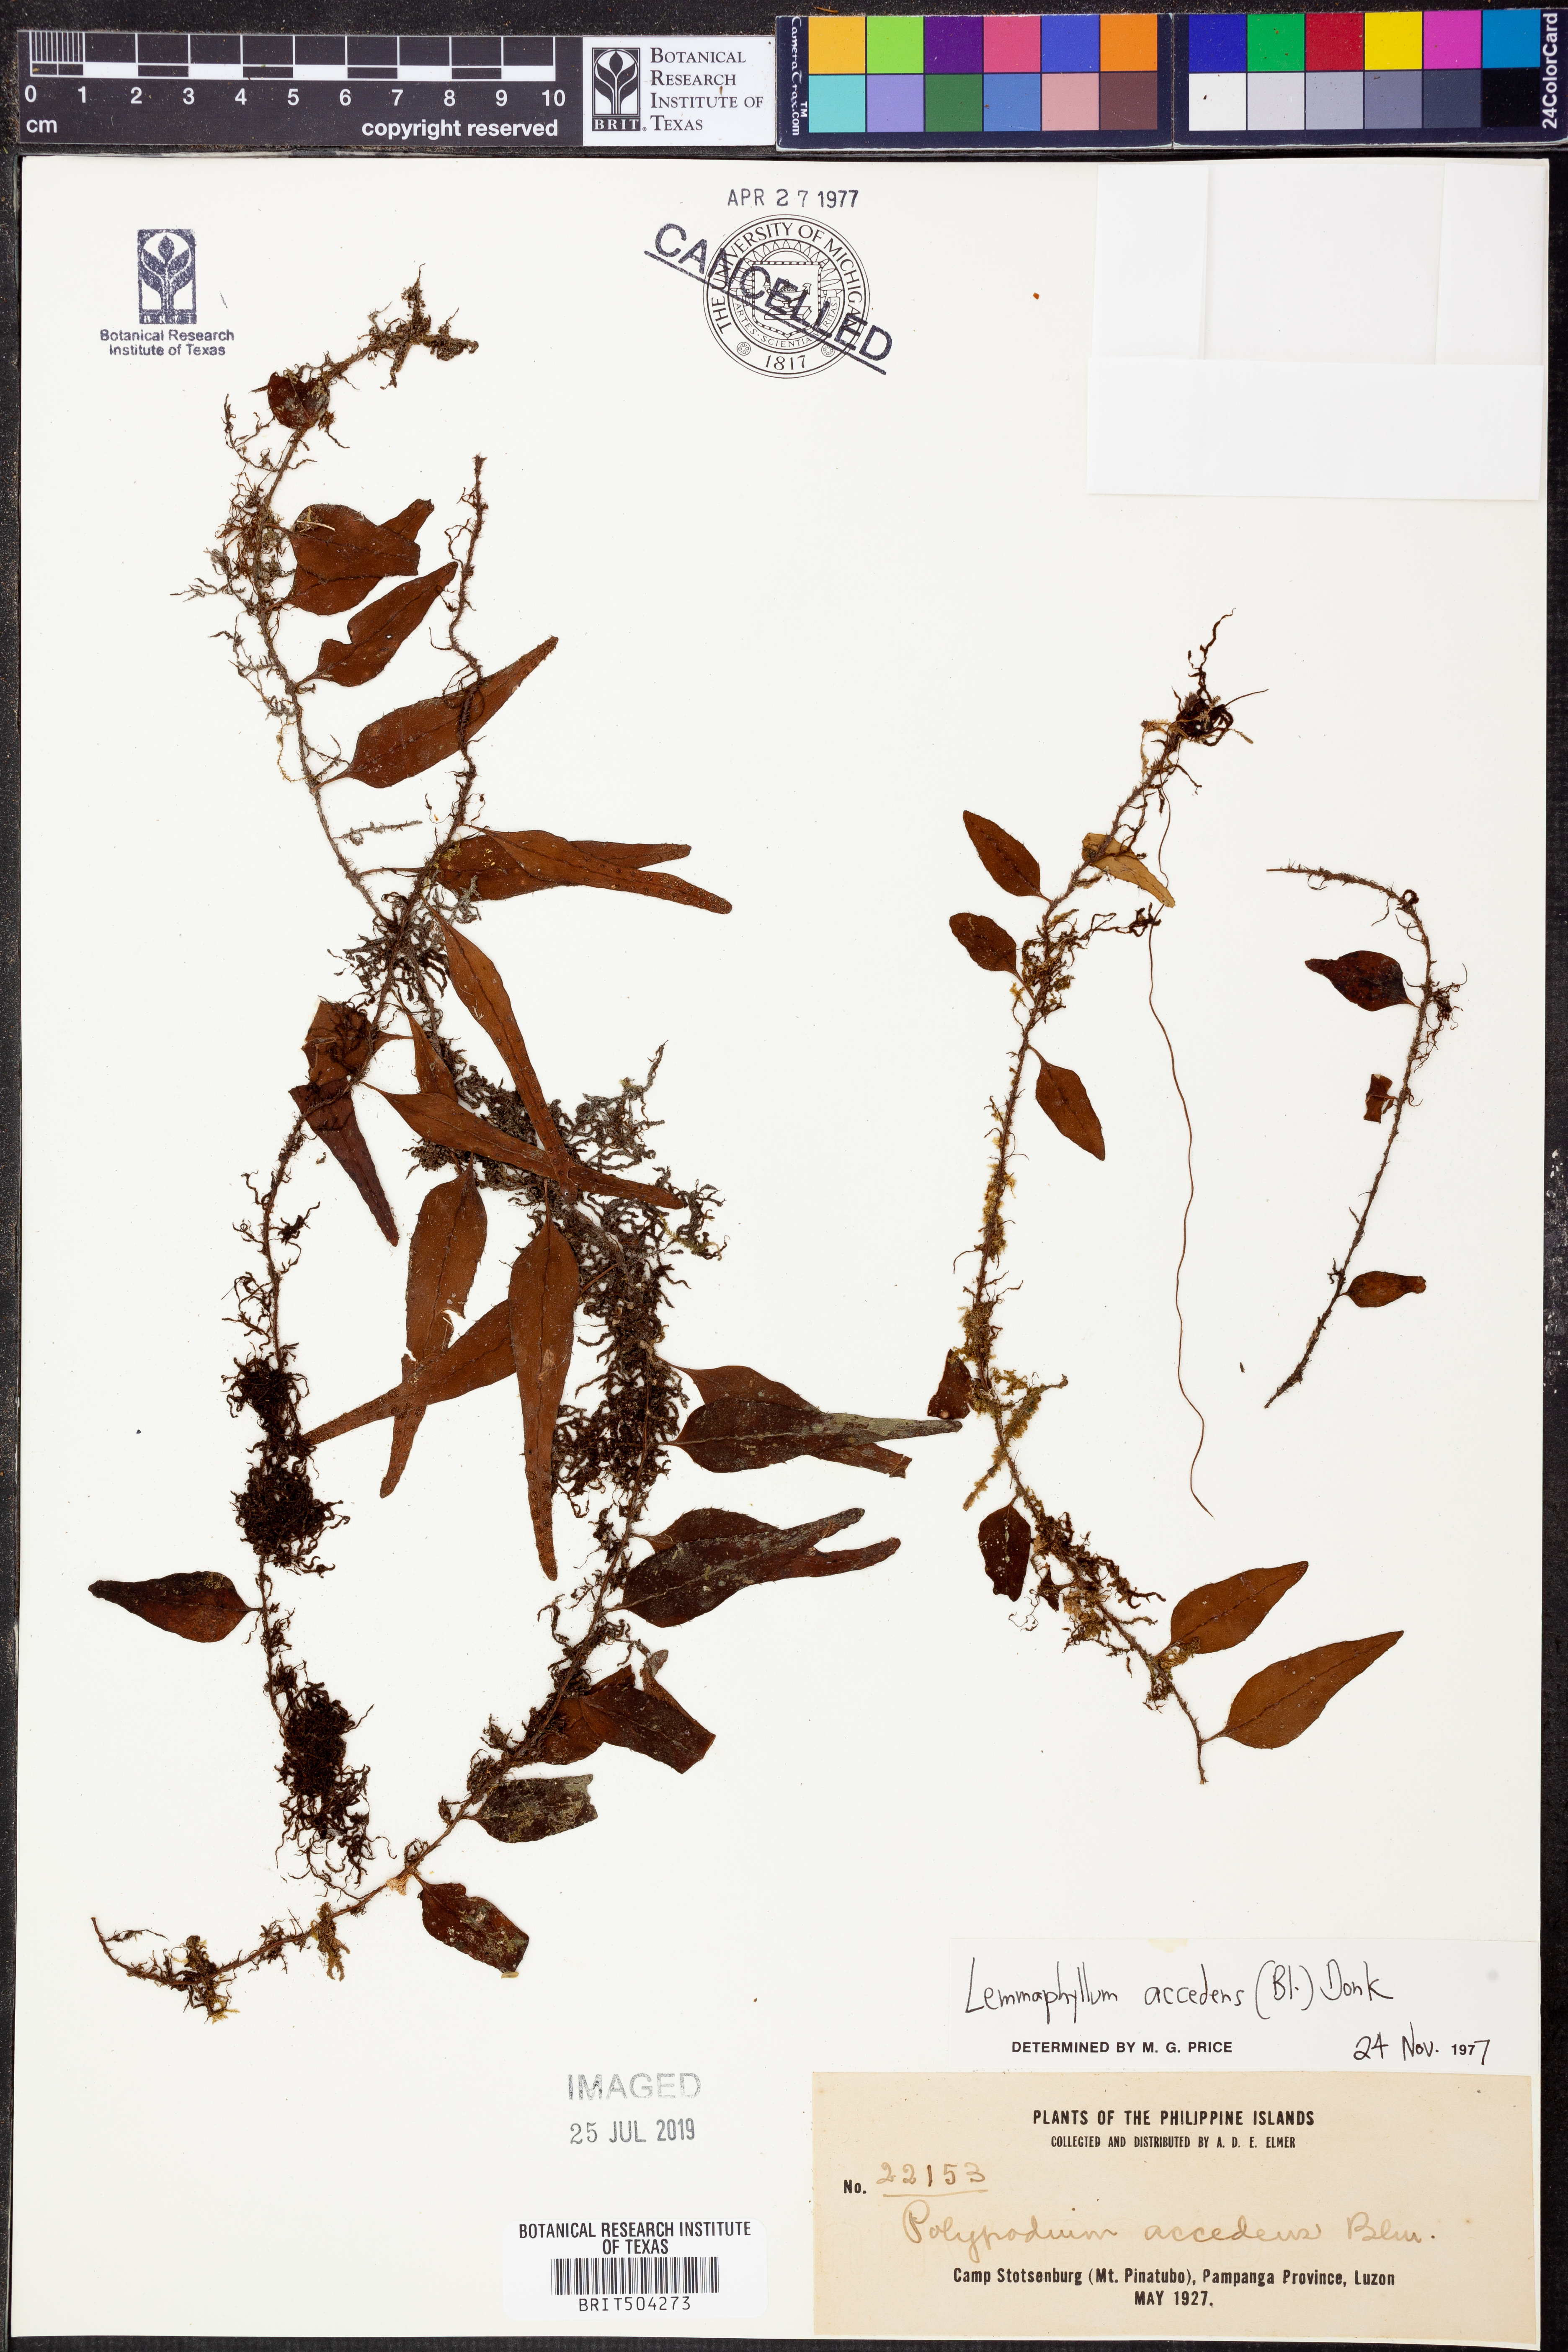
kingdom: Plantae
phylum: Tracheophyta
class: Polypodiopsida
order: Polypodiales
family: Polypodiaceae
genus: Lepisorus
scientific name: Lepisorus accedens
